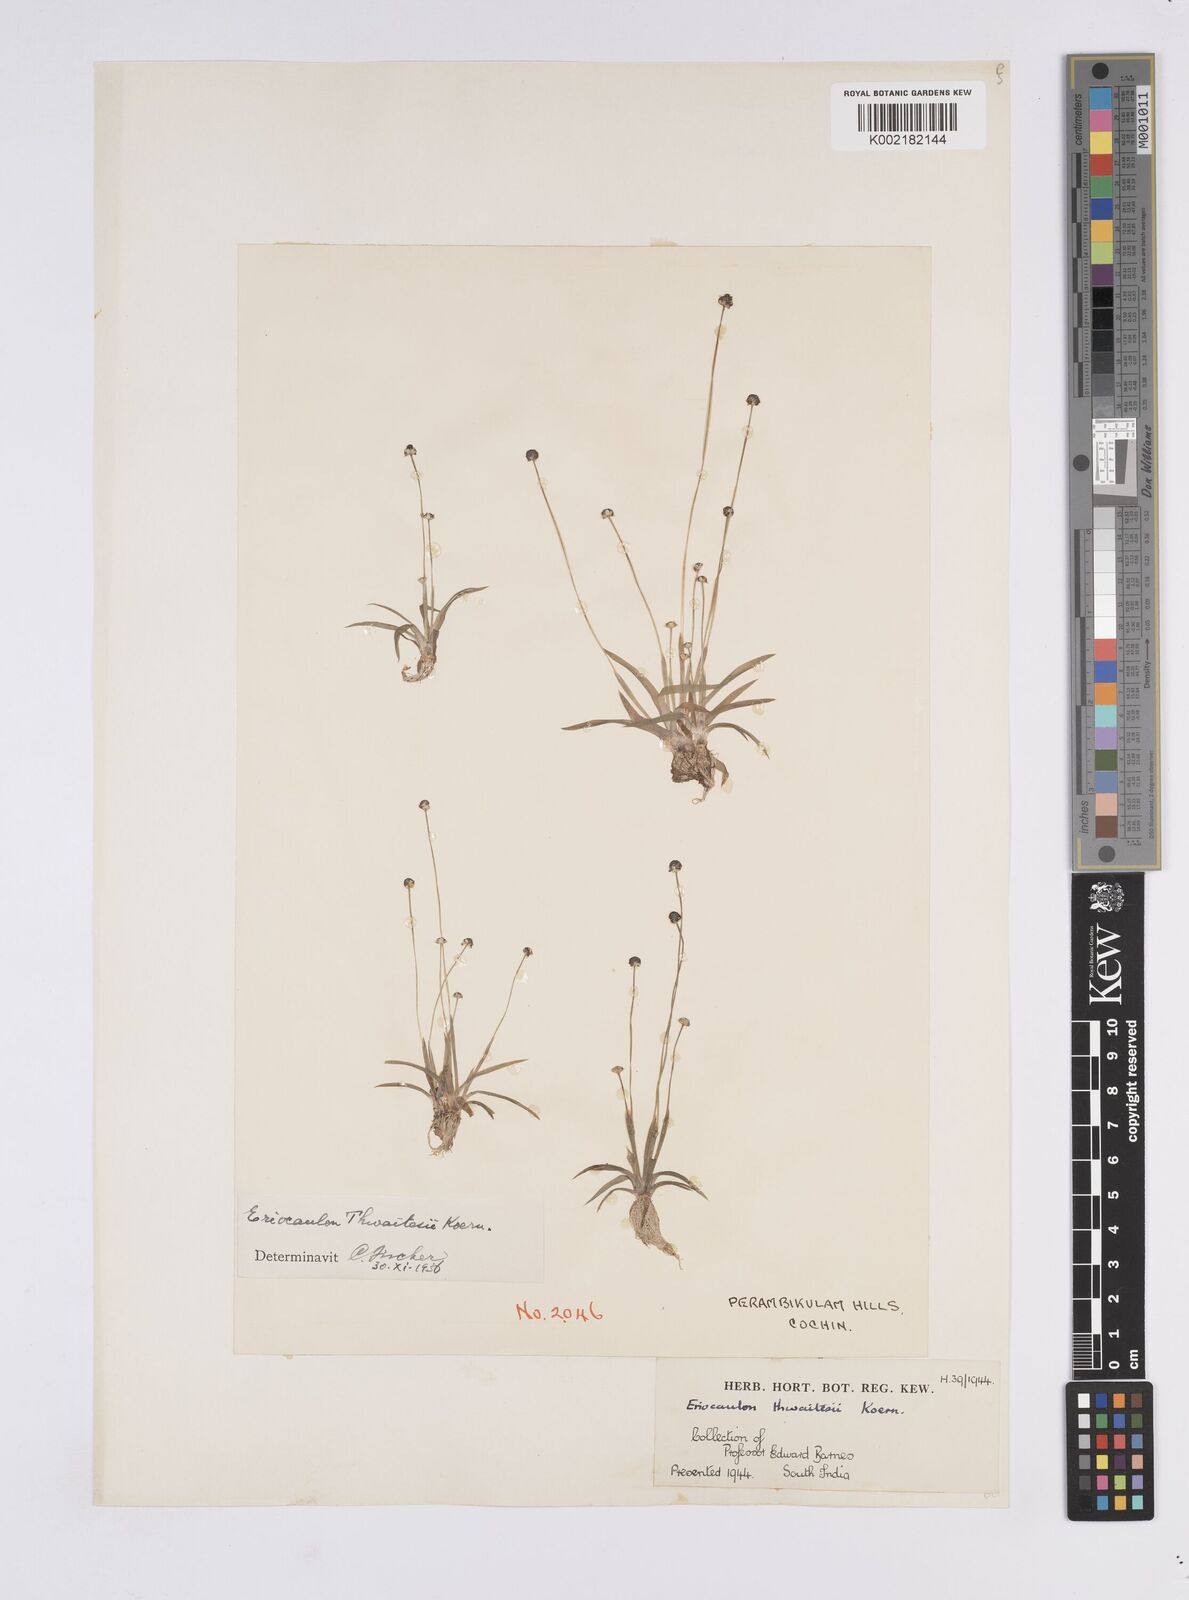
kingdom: Plantae
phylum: Tracheophyta
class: Liliopsida
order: Poales
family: Eriocaulaceae
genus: Eriocaulon
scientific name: Eriocaulon
